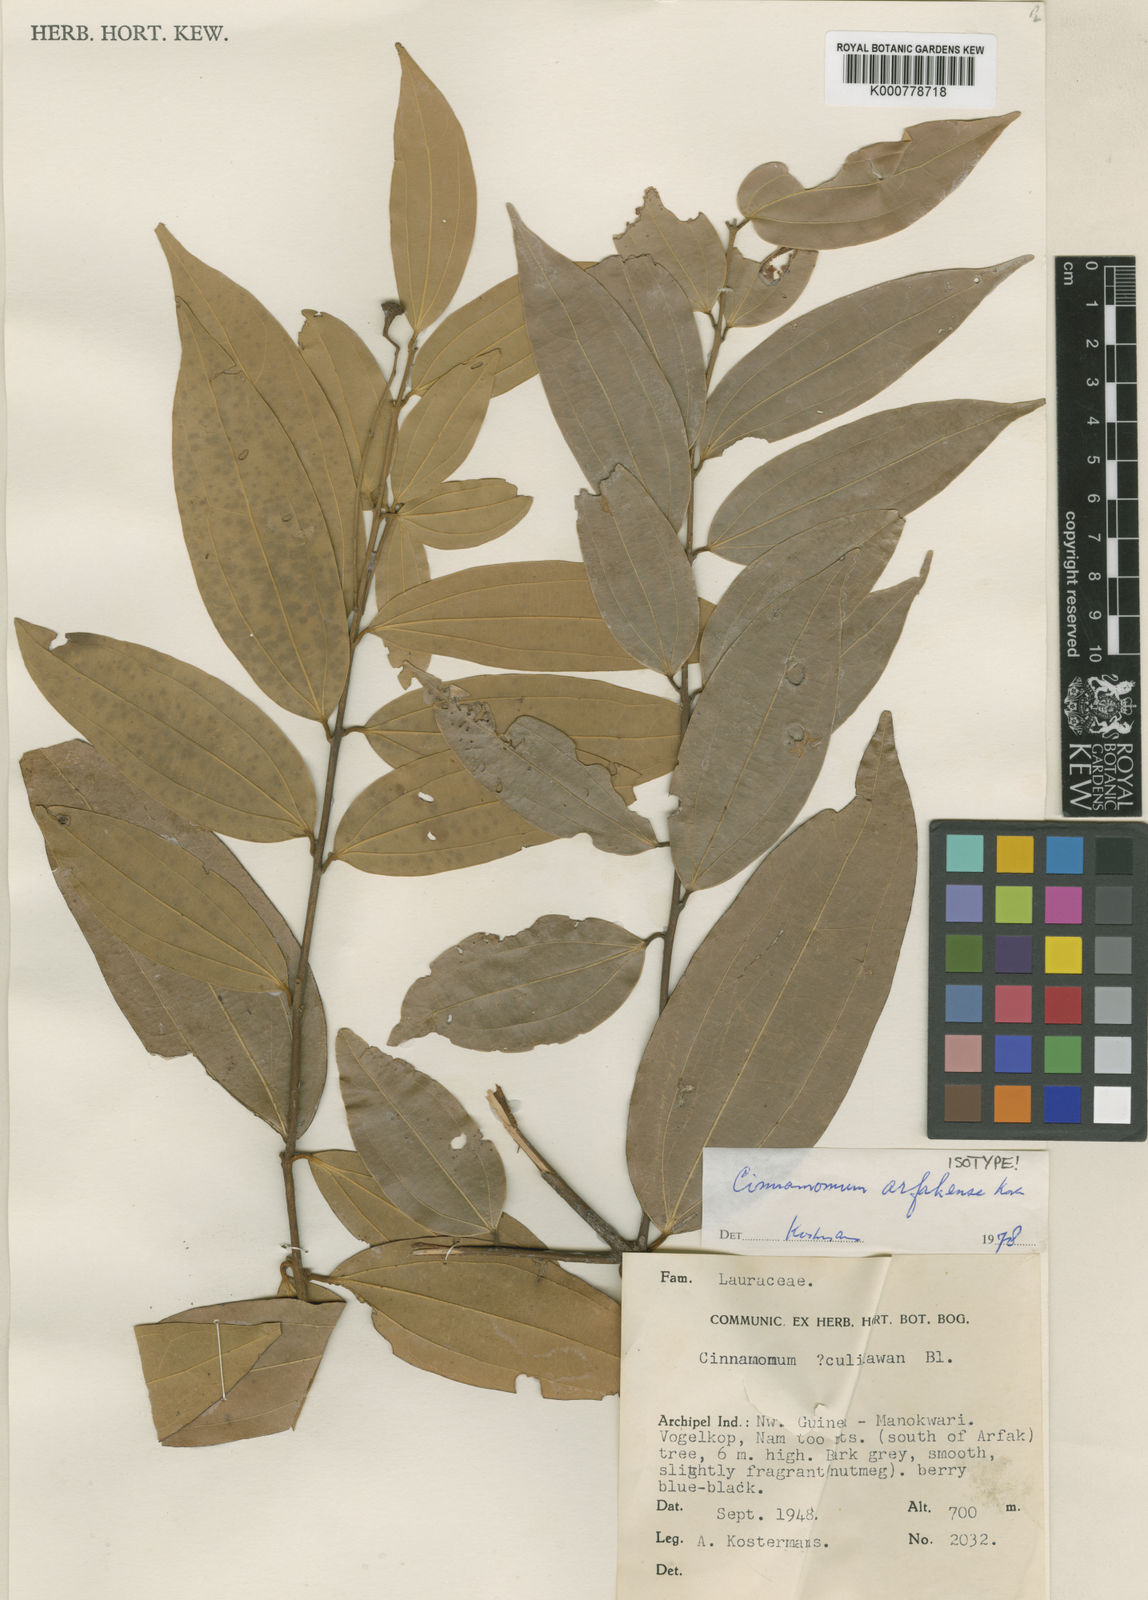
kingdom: Plantae
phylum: Tracheophyta
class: Magnoliopsida
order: Laurales
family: Lauraceae
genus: Cinnamomum
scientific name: Cinnamomum arfakense
